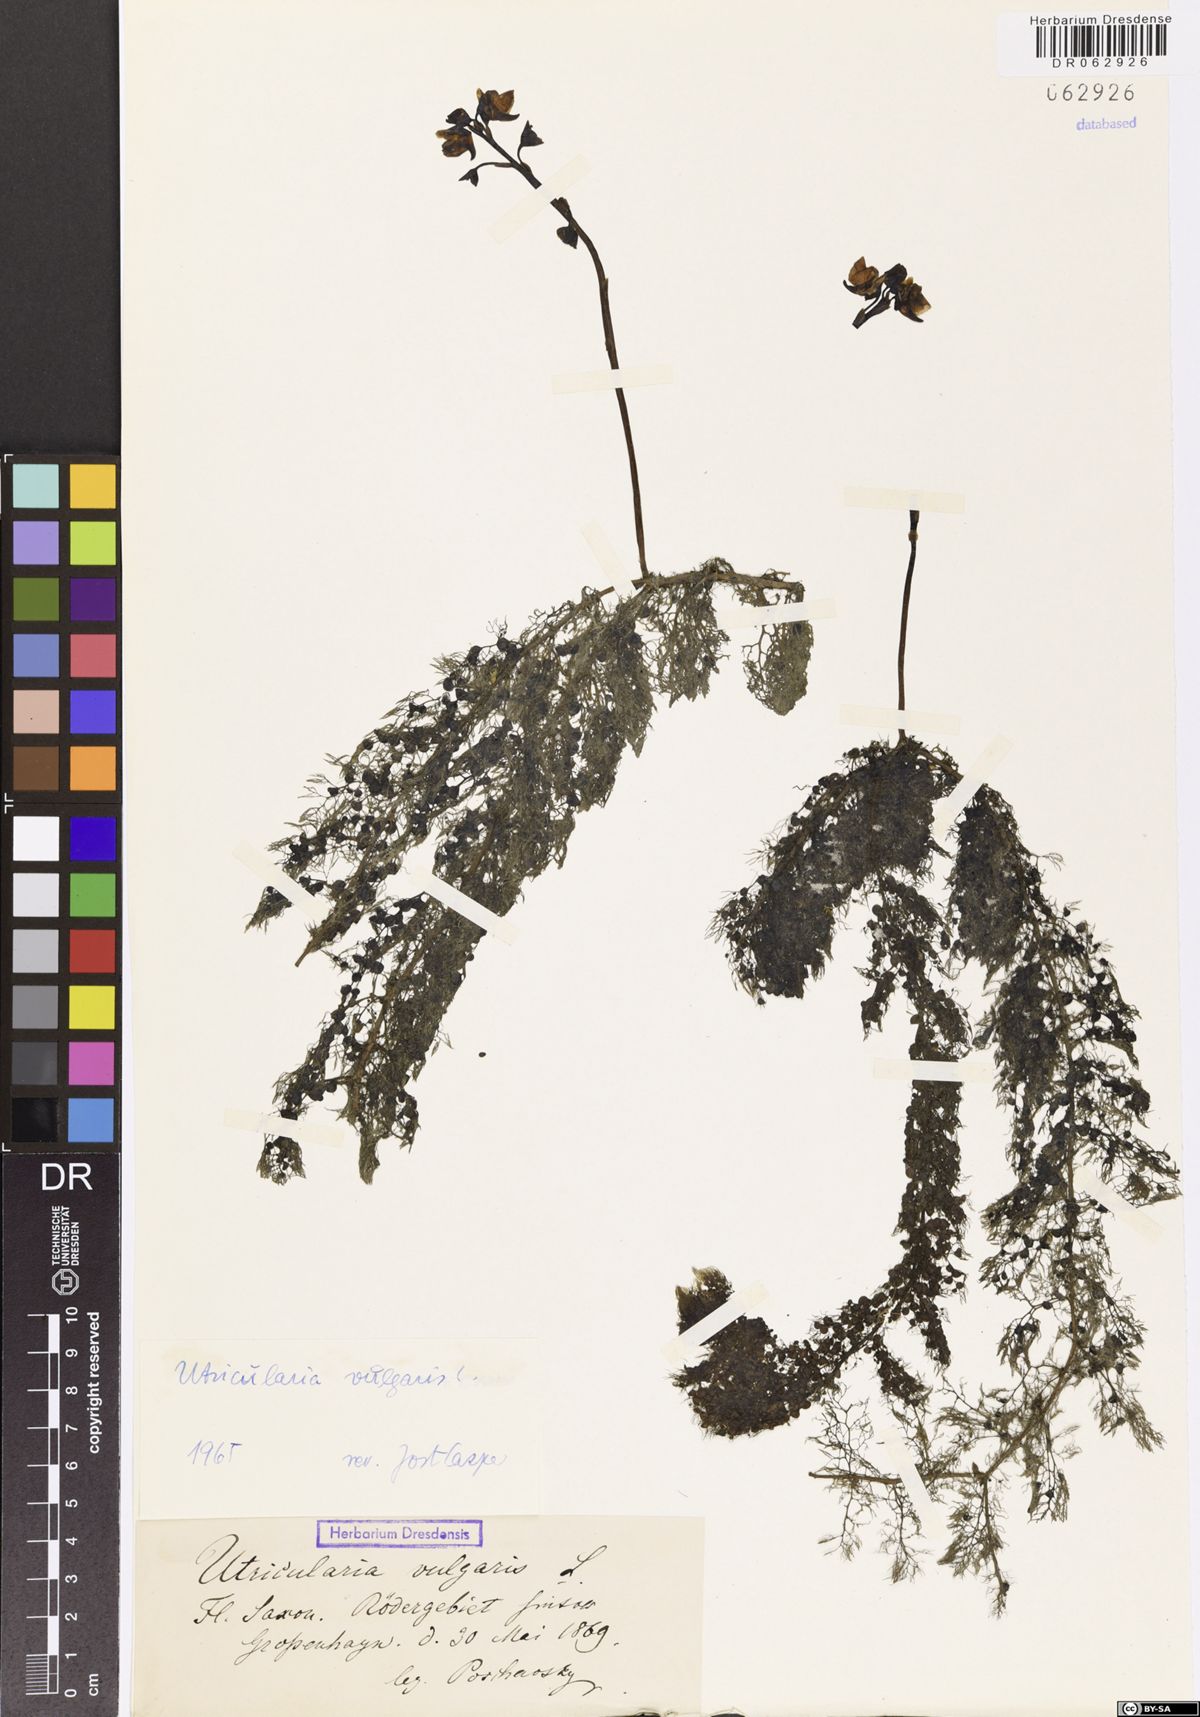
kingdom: Plantae
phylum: Tracheophyta
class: Magnoliopsida
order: Lamiales
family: Lentibulariaceae
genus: Utricularia
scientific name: Utricularia vulgaris
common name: Greater bladderwort
